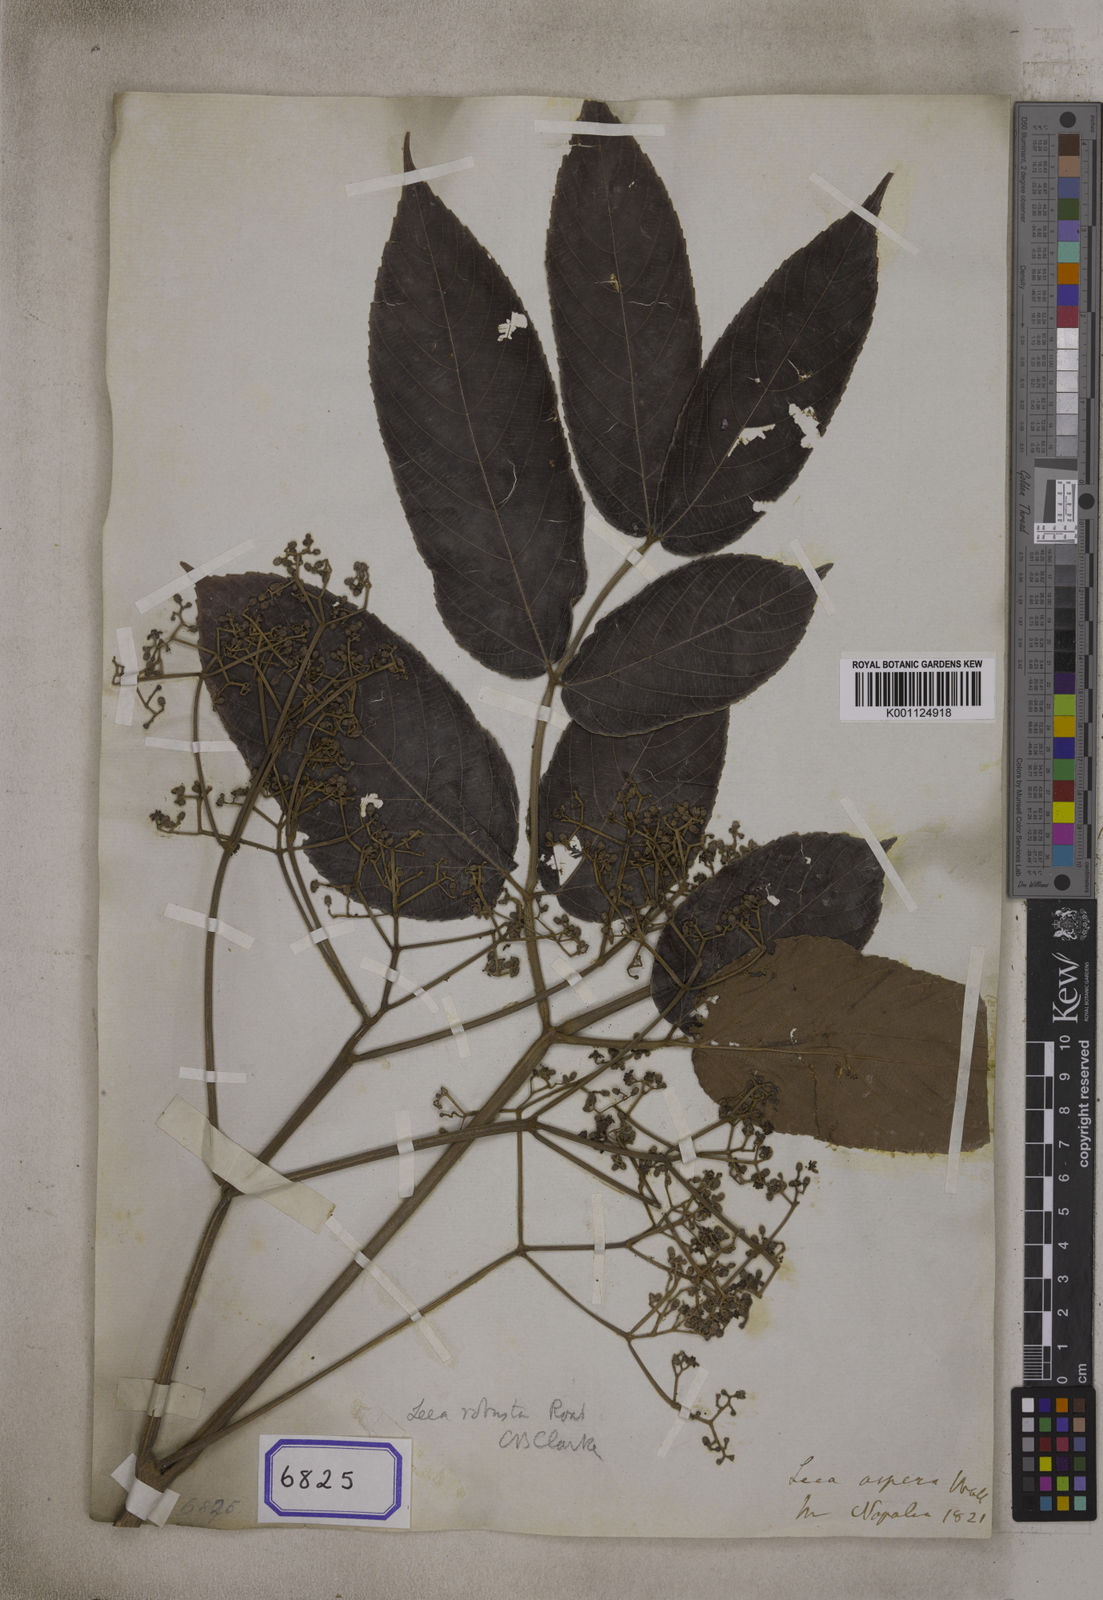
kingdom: Plantae
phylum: Tracheophyta
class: Magnoliopsida
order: Vitales
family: Vitaceae
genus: Leea
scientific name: Leea
